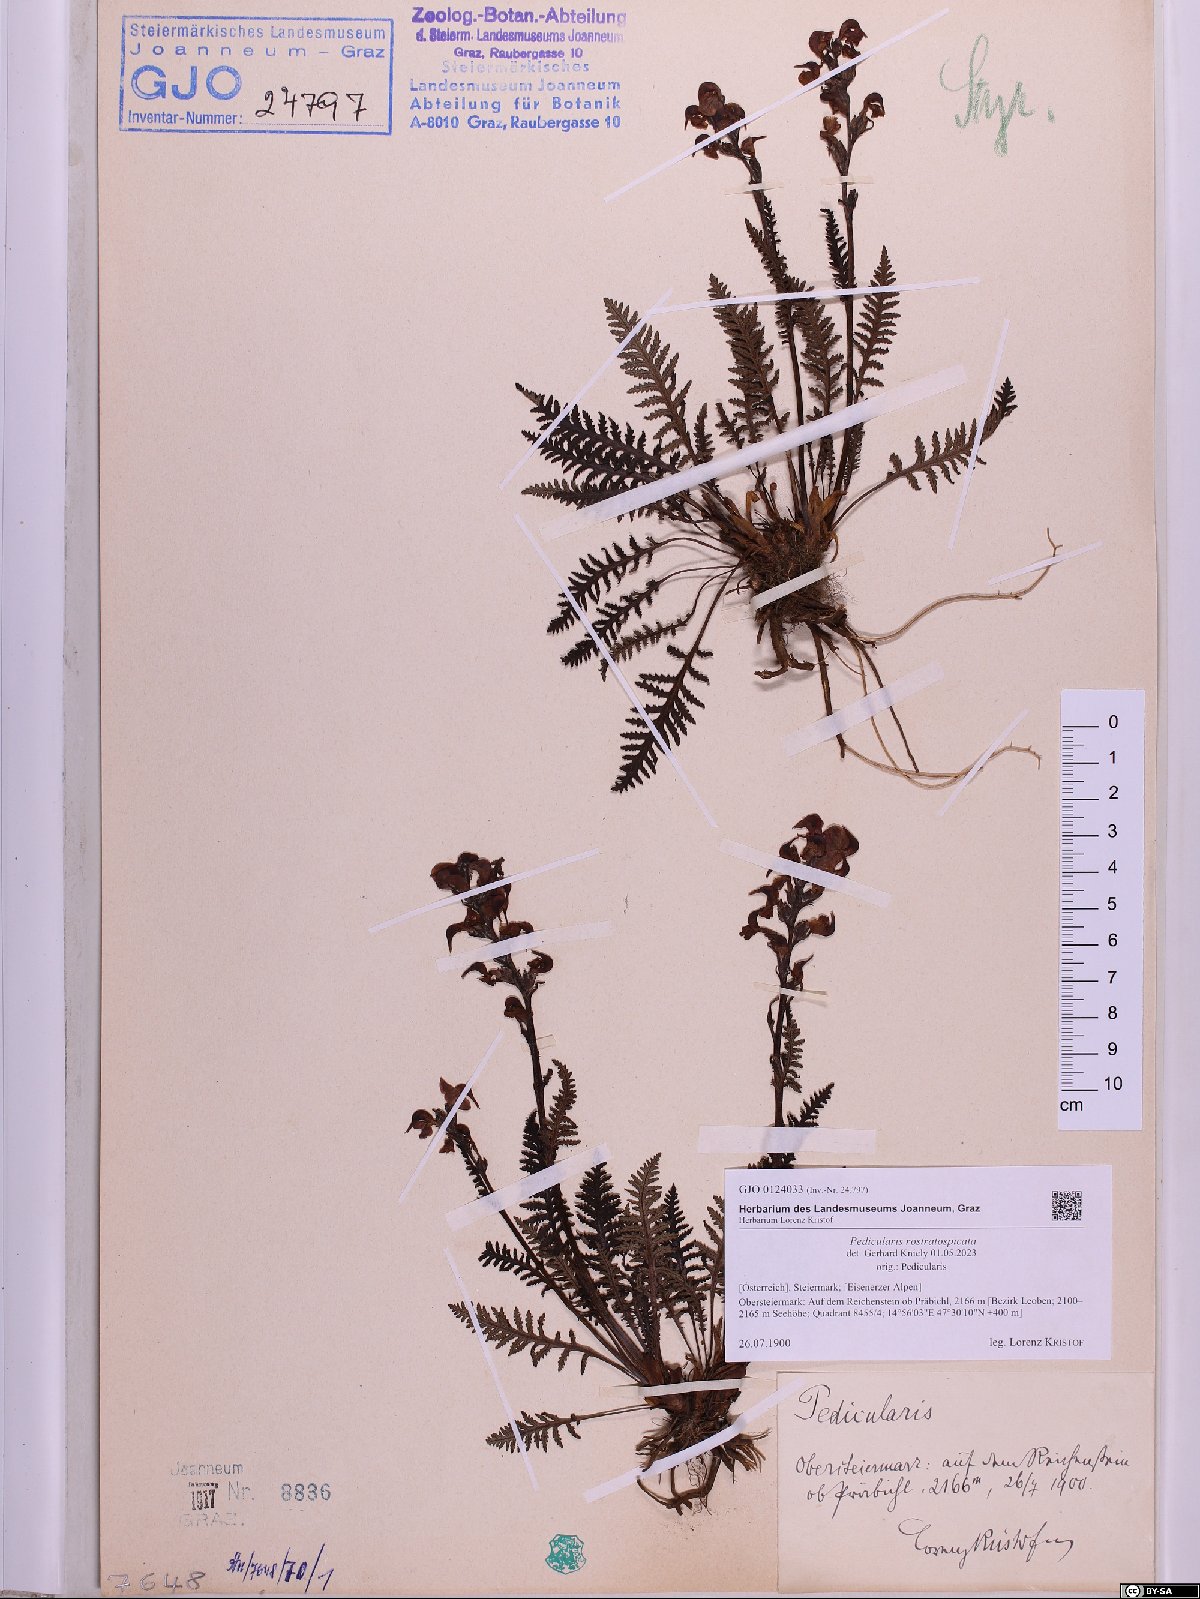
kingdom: Plantae
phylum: Tracheophyta
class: Magnoliopsida
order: Lamiales
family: Orobanchaceae
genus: Pedicularis
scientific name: Pedicularis rostratospicata
